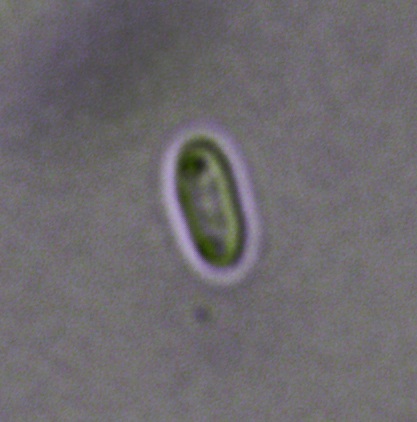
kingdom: Fungi
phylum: Ascomycota
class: Orbiliomycetes
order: Orbiliales
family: Orbiliaceae
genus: Orbilia
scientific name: Orbilia eucalypti
